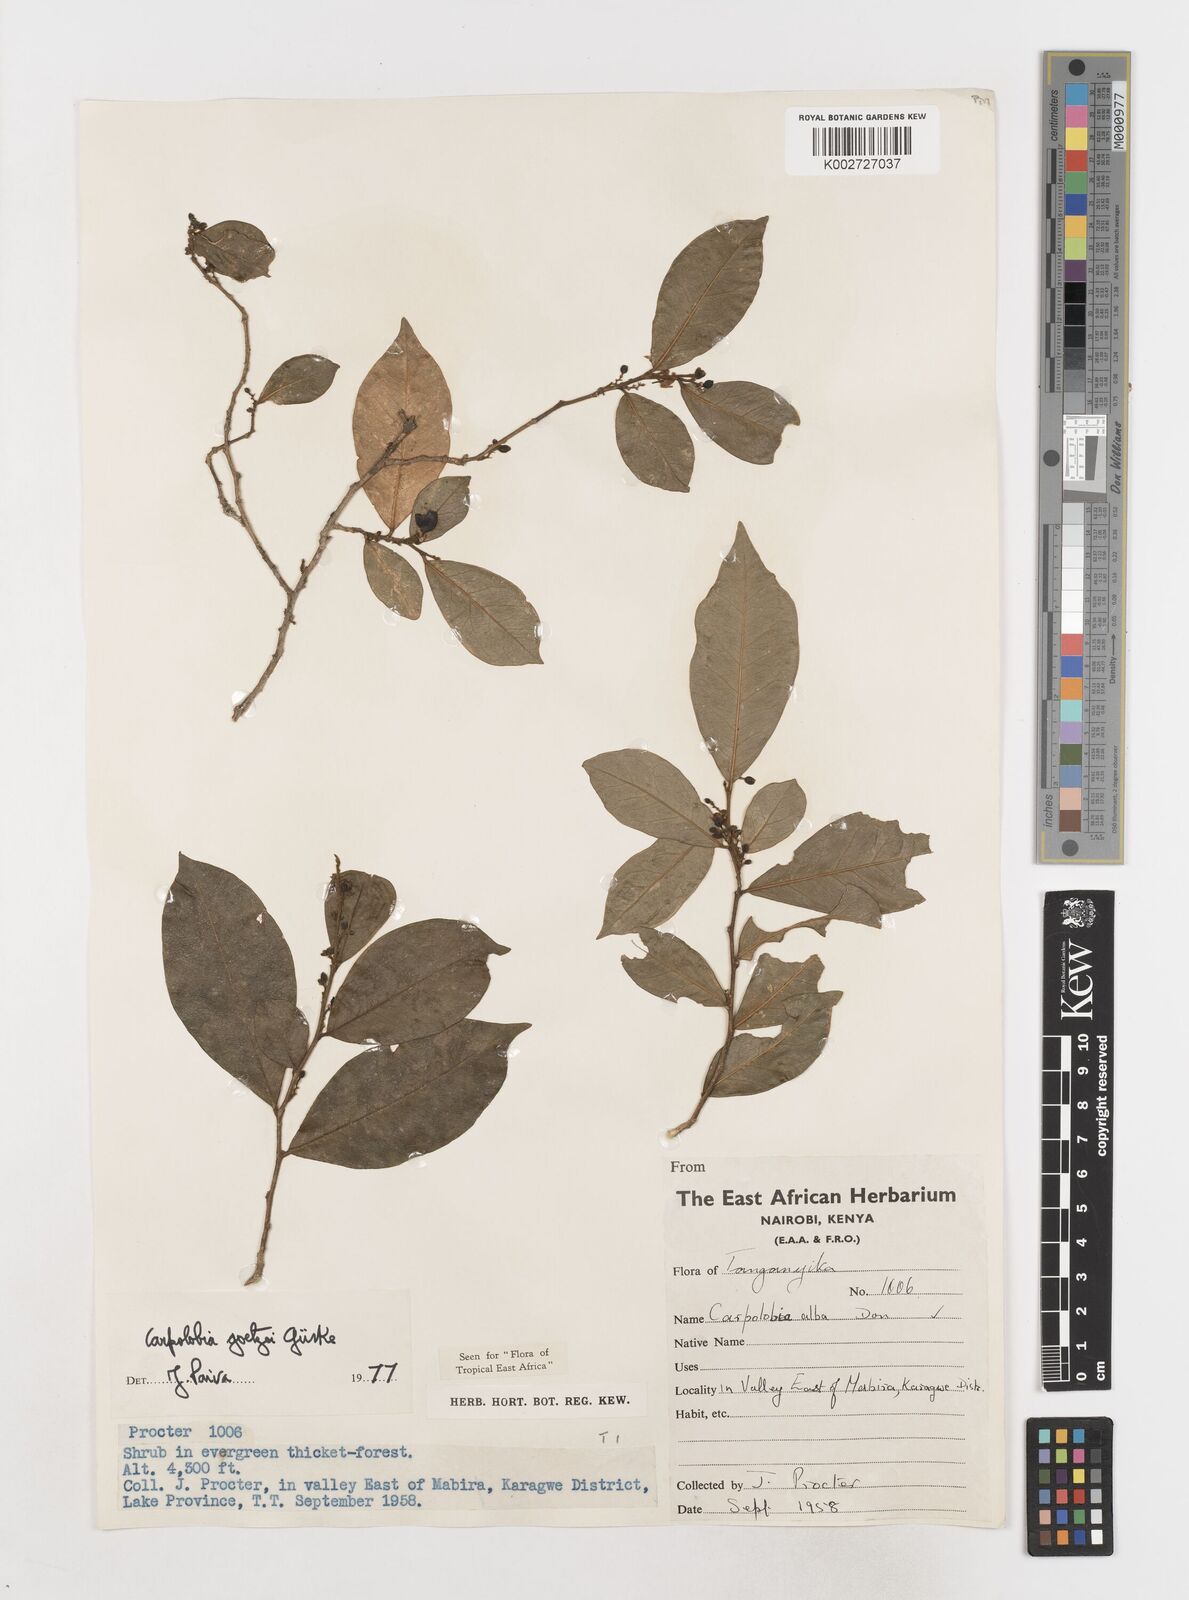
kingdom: Plantae
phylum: Tracheophyta
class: Magnoliopsida
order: Fabales
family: Polygalaceae
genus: Carpolobia
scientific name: Carpolobia goetzei
